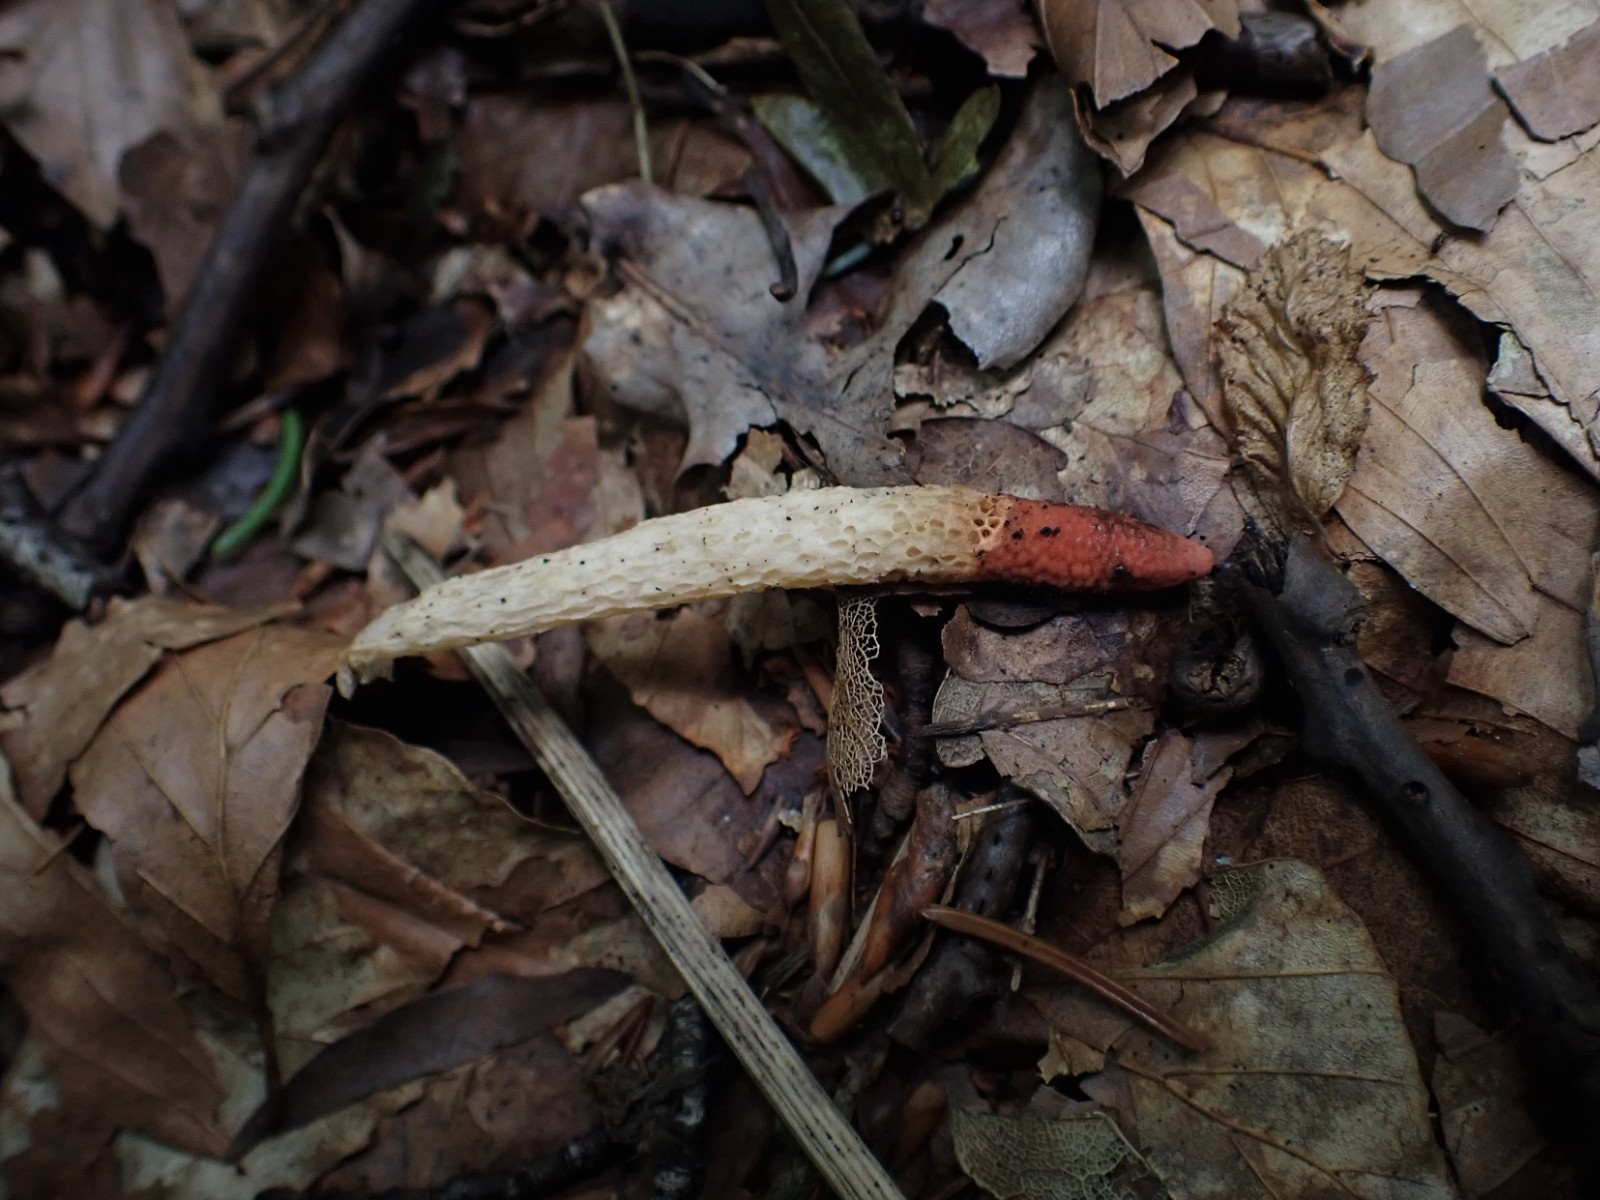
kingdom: Fungi
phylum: Basidiomycota
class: Agaricomycetes
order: Phallales
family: Phallaceae
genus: Mutinus
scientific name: Mutinus caninus
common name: hunde-stinksvamp
